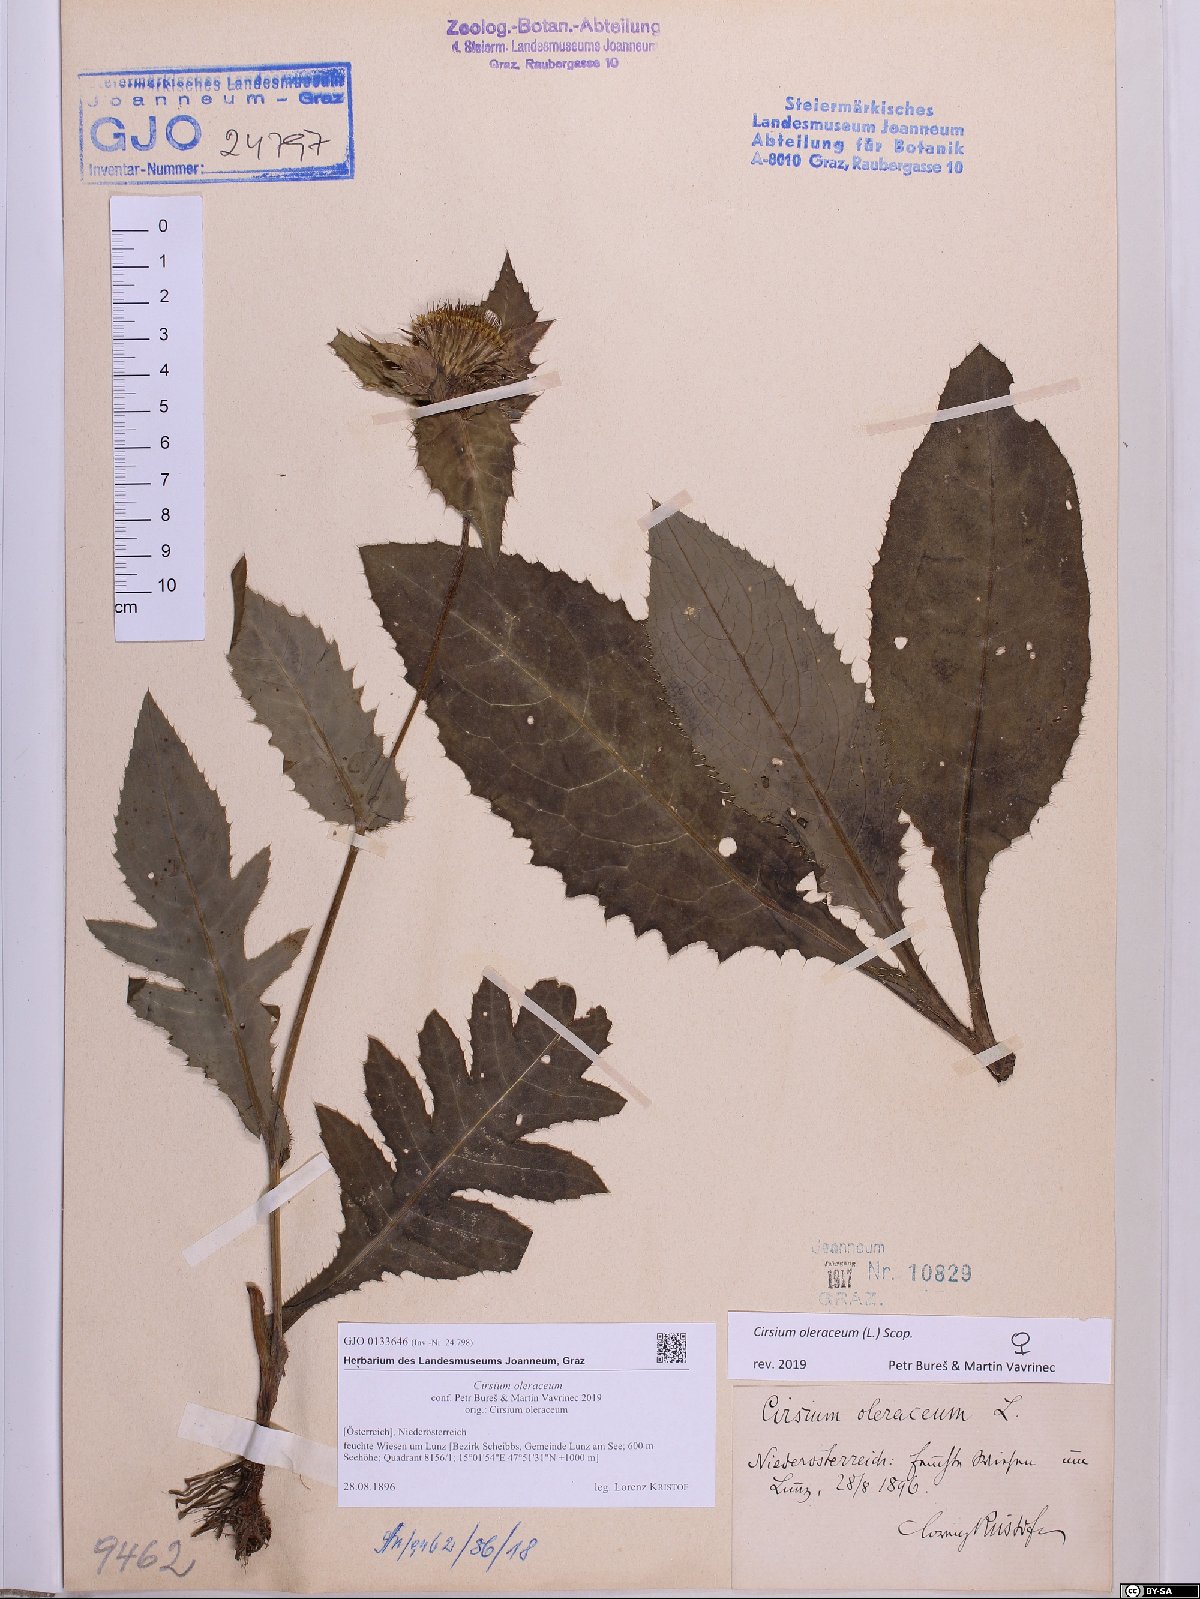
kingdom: Plantae
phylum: Tracheophyta
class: Magnoliopsida
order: Asterales
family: Asteraceae
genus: Cirsium
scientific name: Cirsium oleraceum
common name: Cabbage thistle
